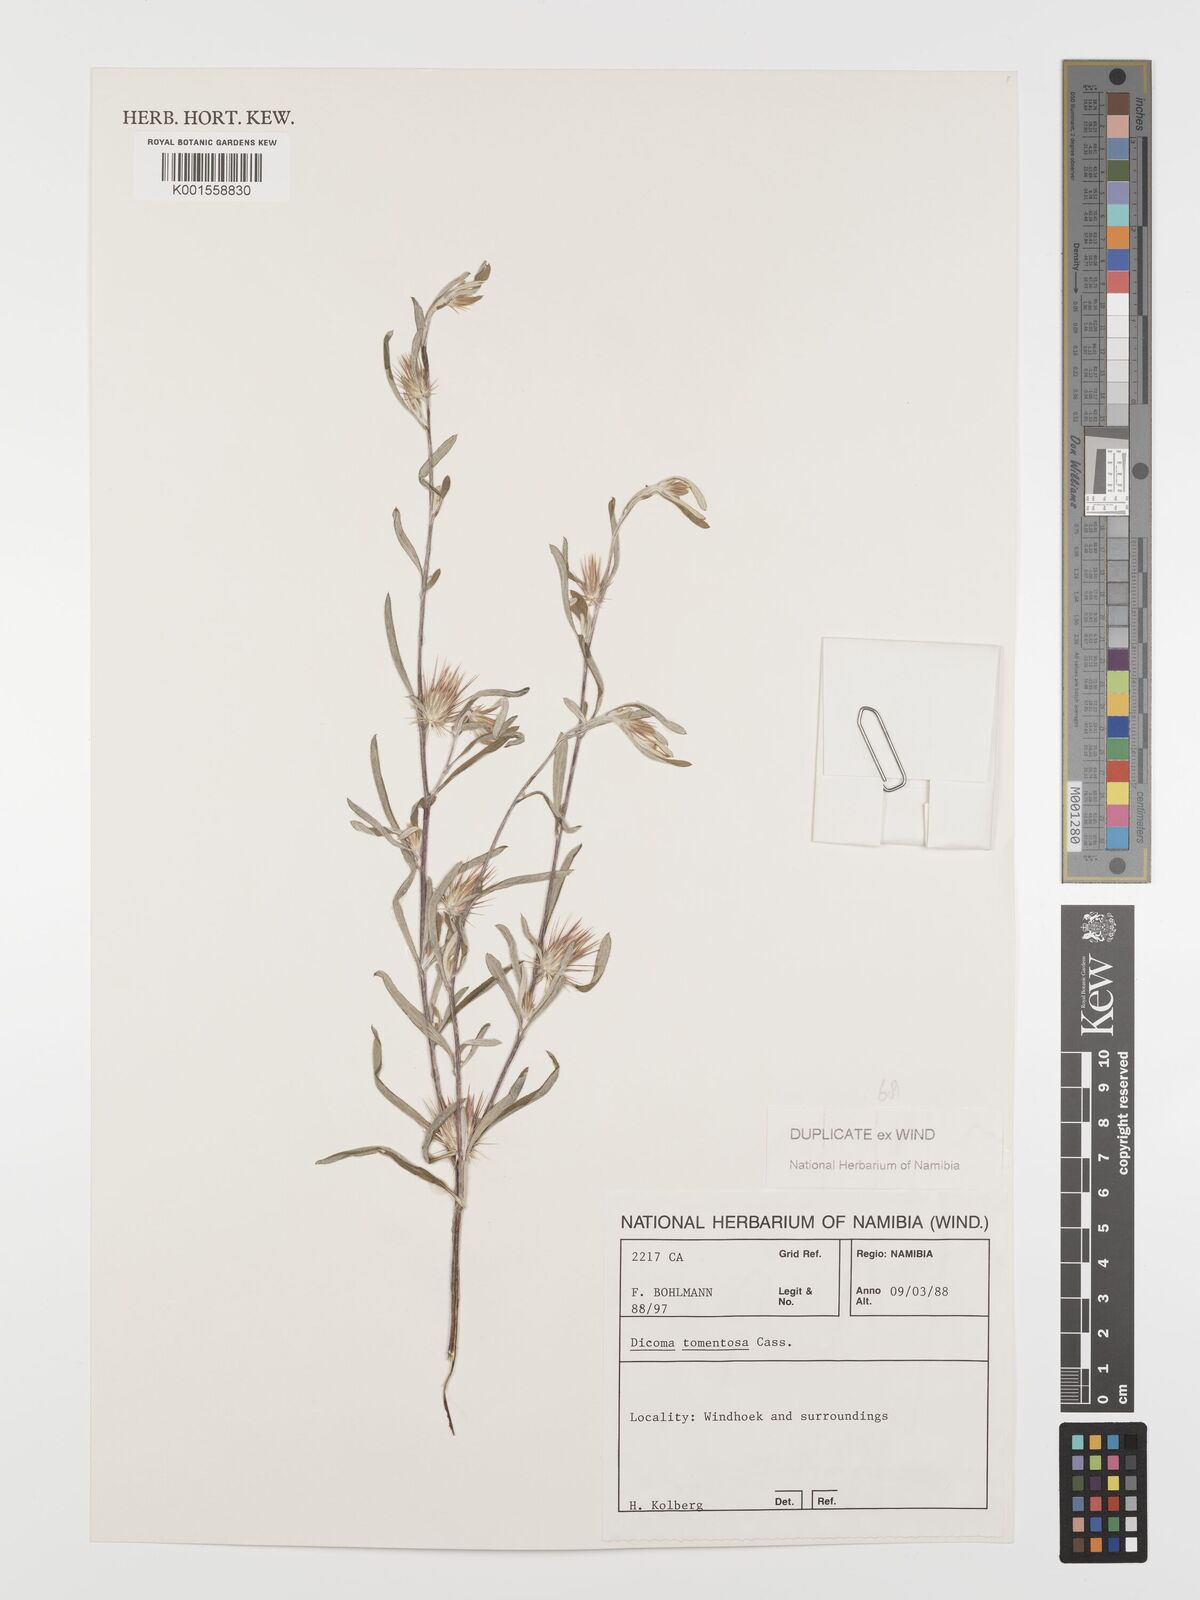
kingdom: Plantae
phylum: Tracheophyta
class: Magnoliopsida
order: Asterales
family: Asteraceae
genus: Dicoma
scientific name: Dicoma tomentosa
